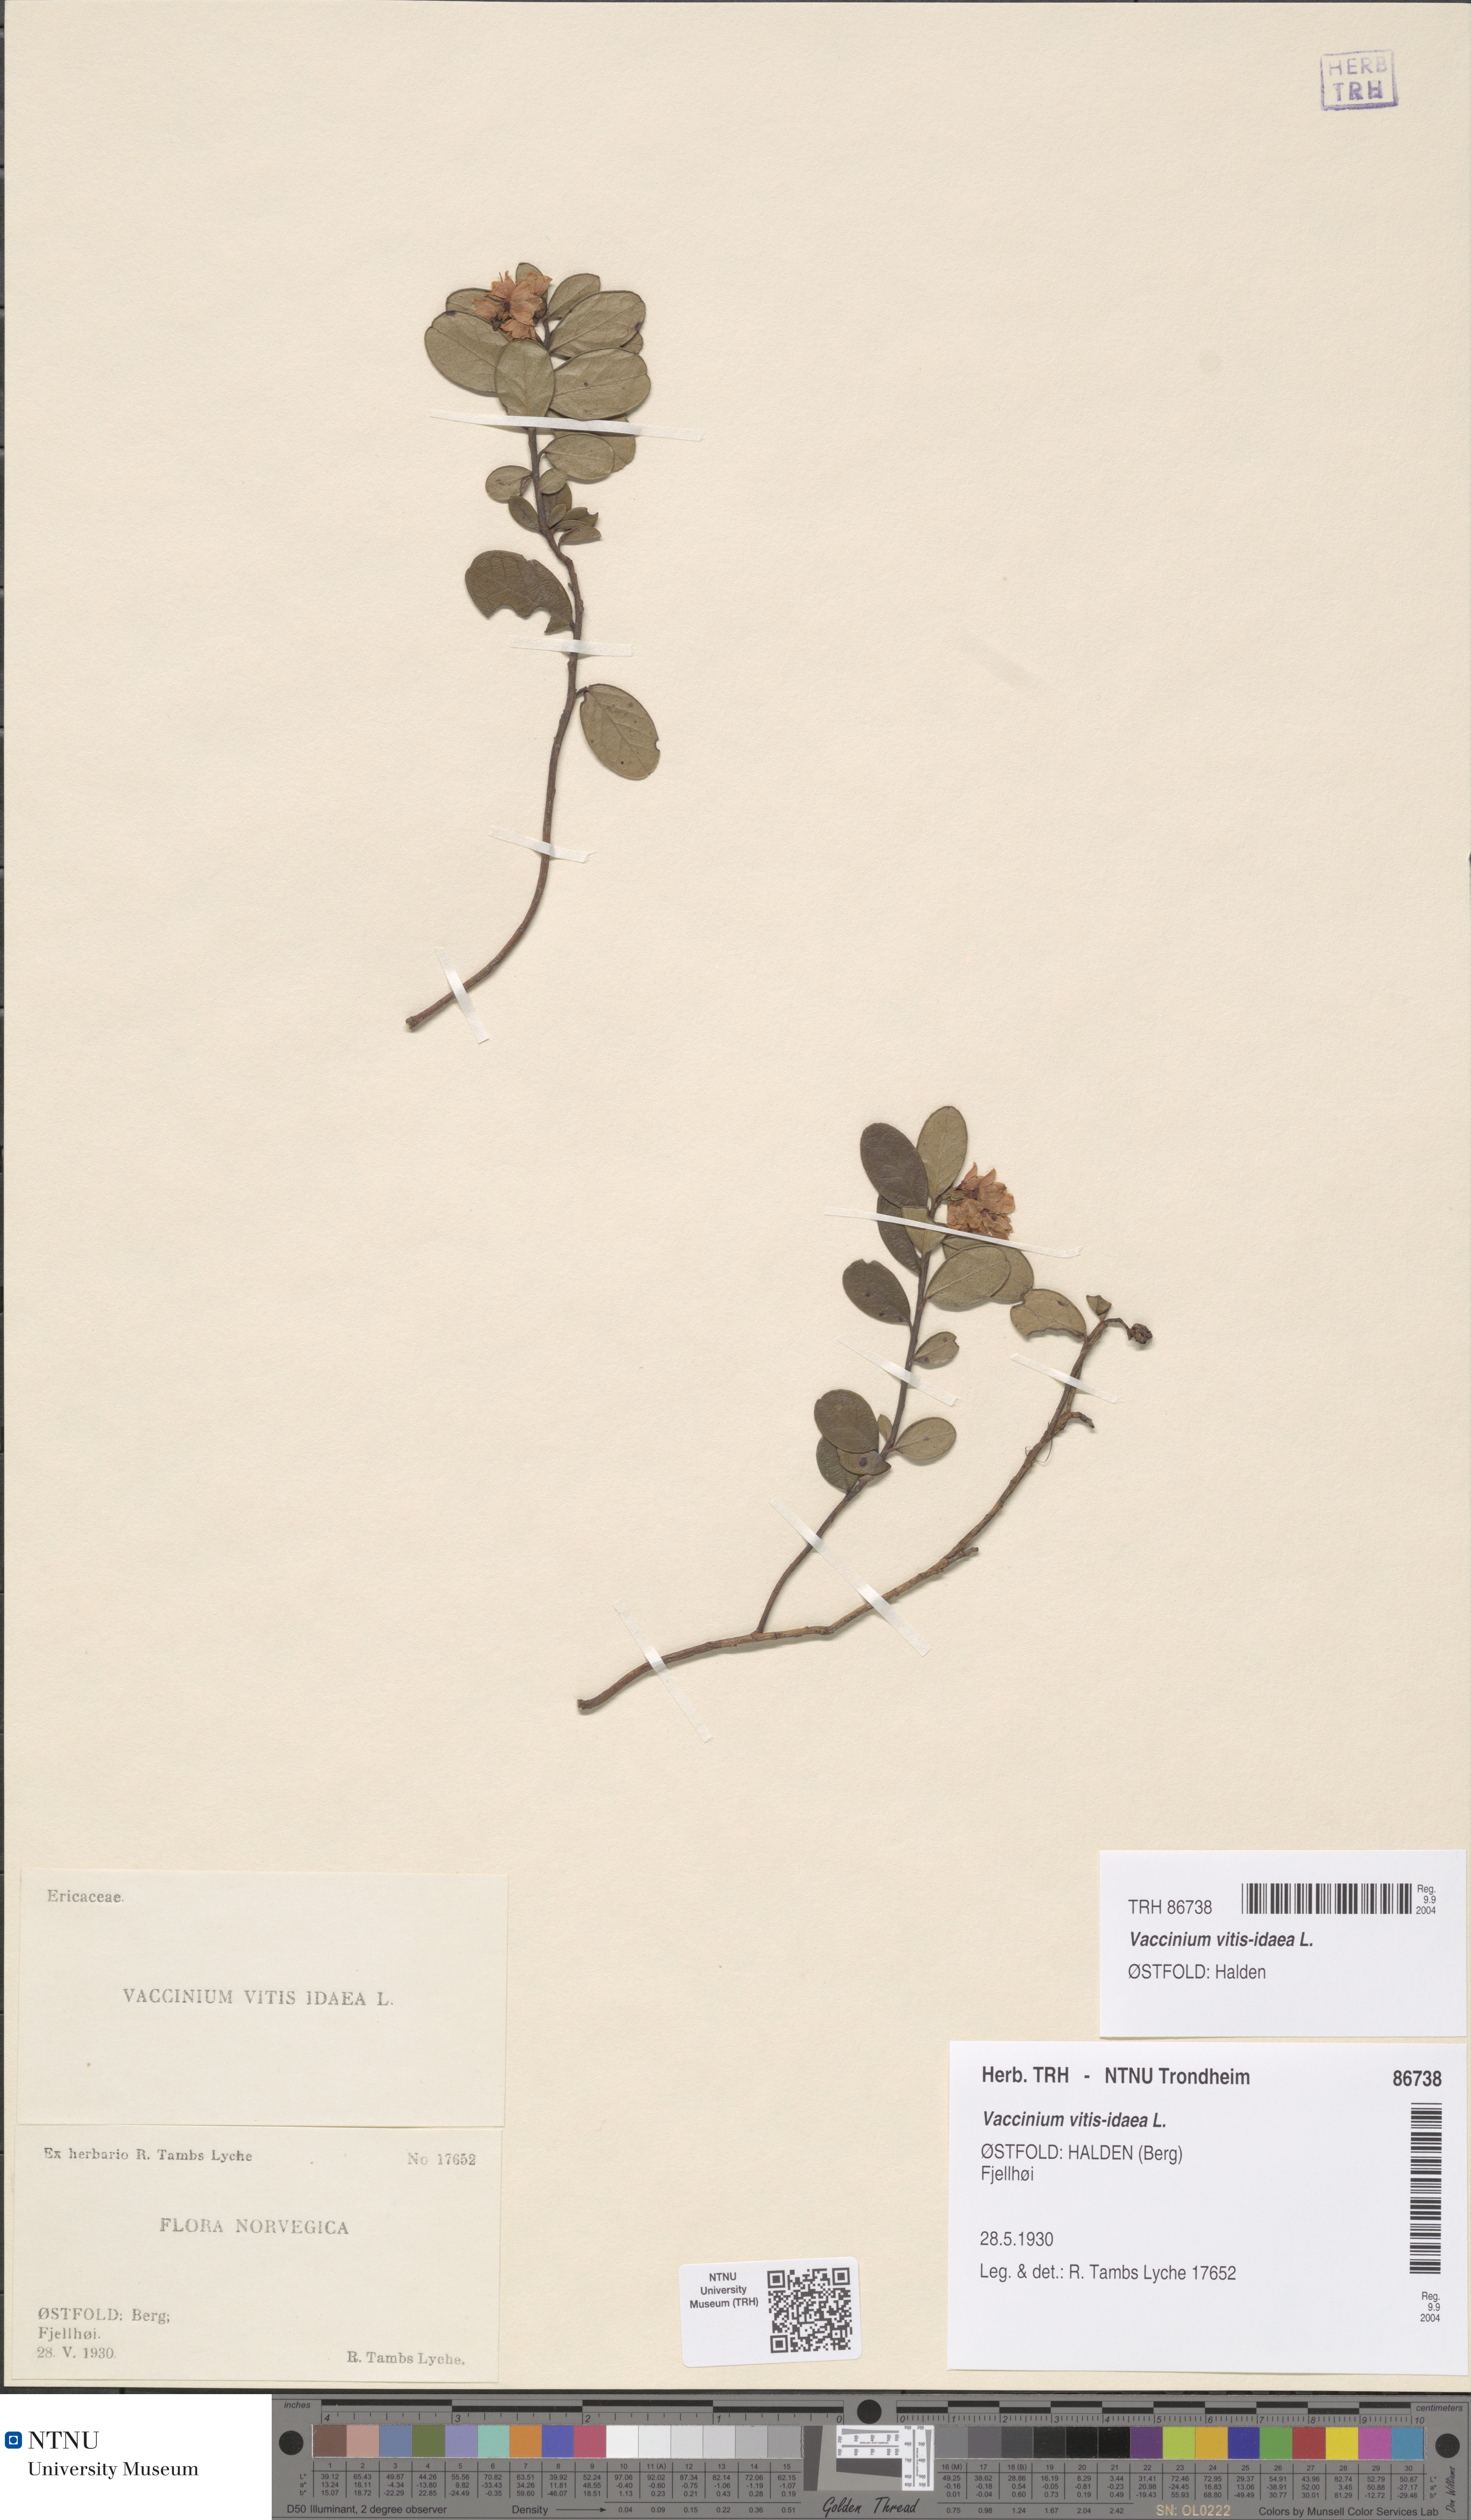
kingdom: Plantae
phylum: Tracheophyta
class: Magnoliopsida
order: Ericales
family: Ericaceae
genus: Vaccinium
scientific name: Vaccinium vitis-idaea
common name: Cowberry
